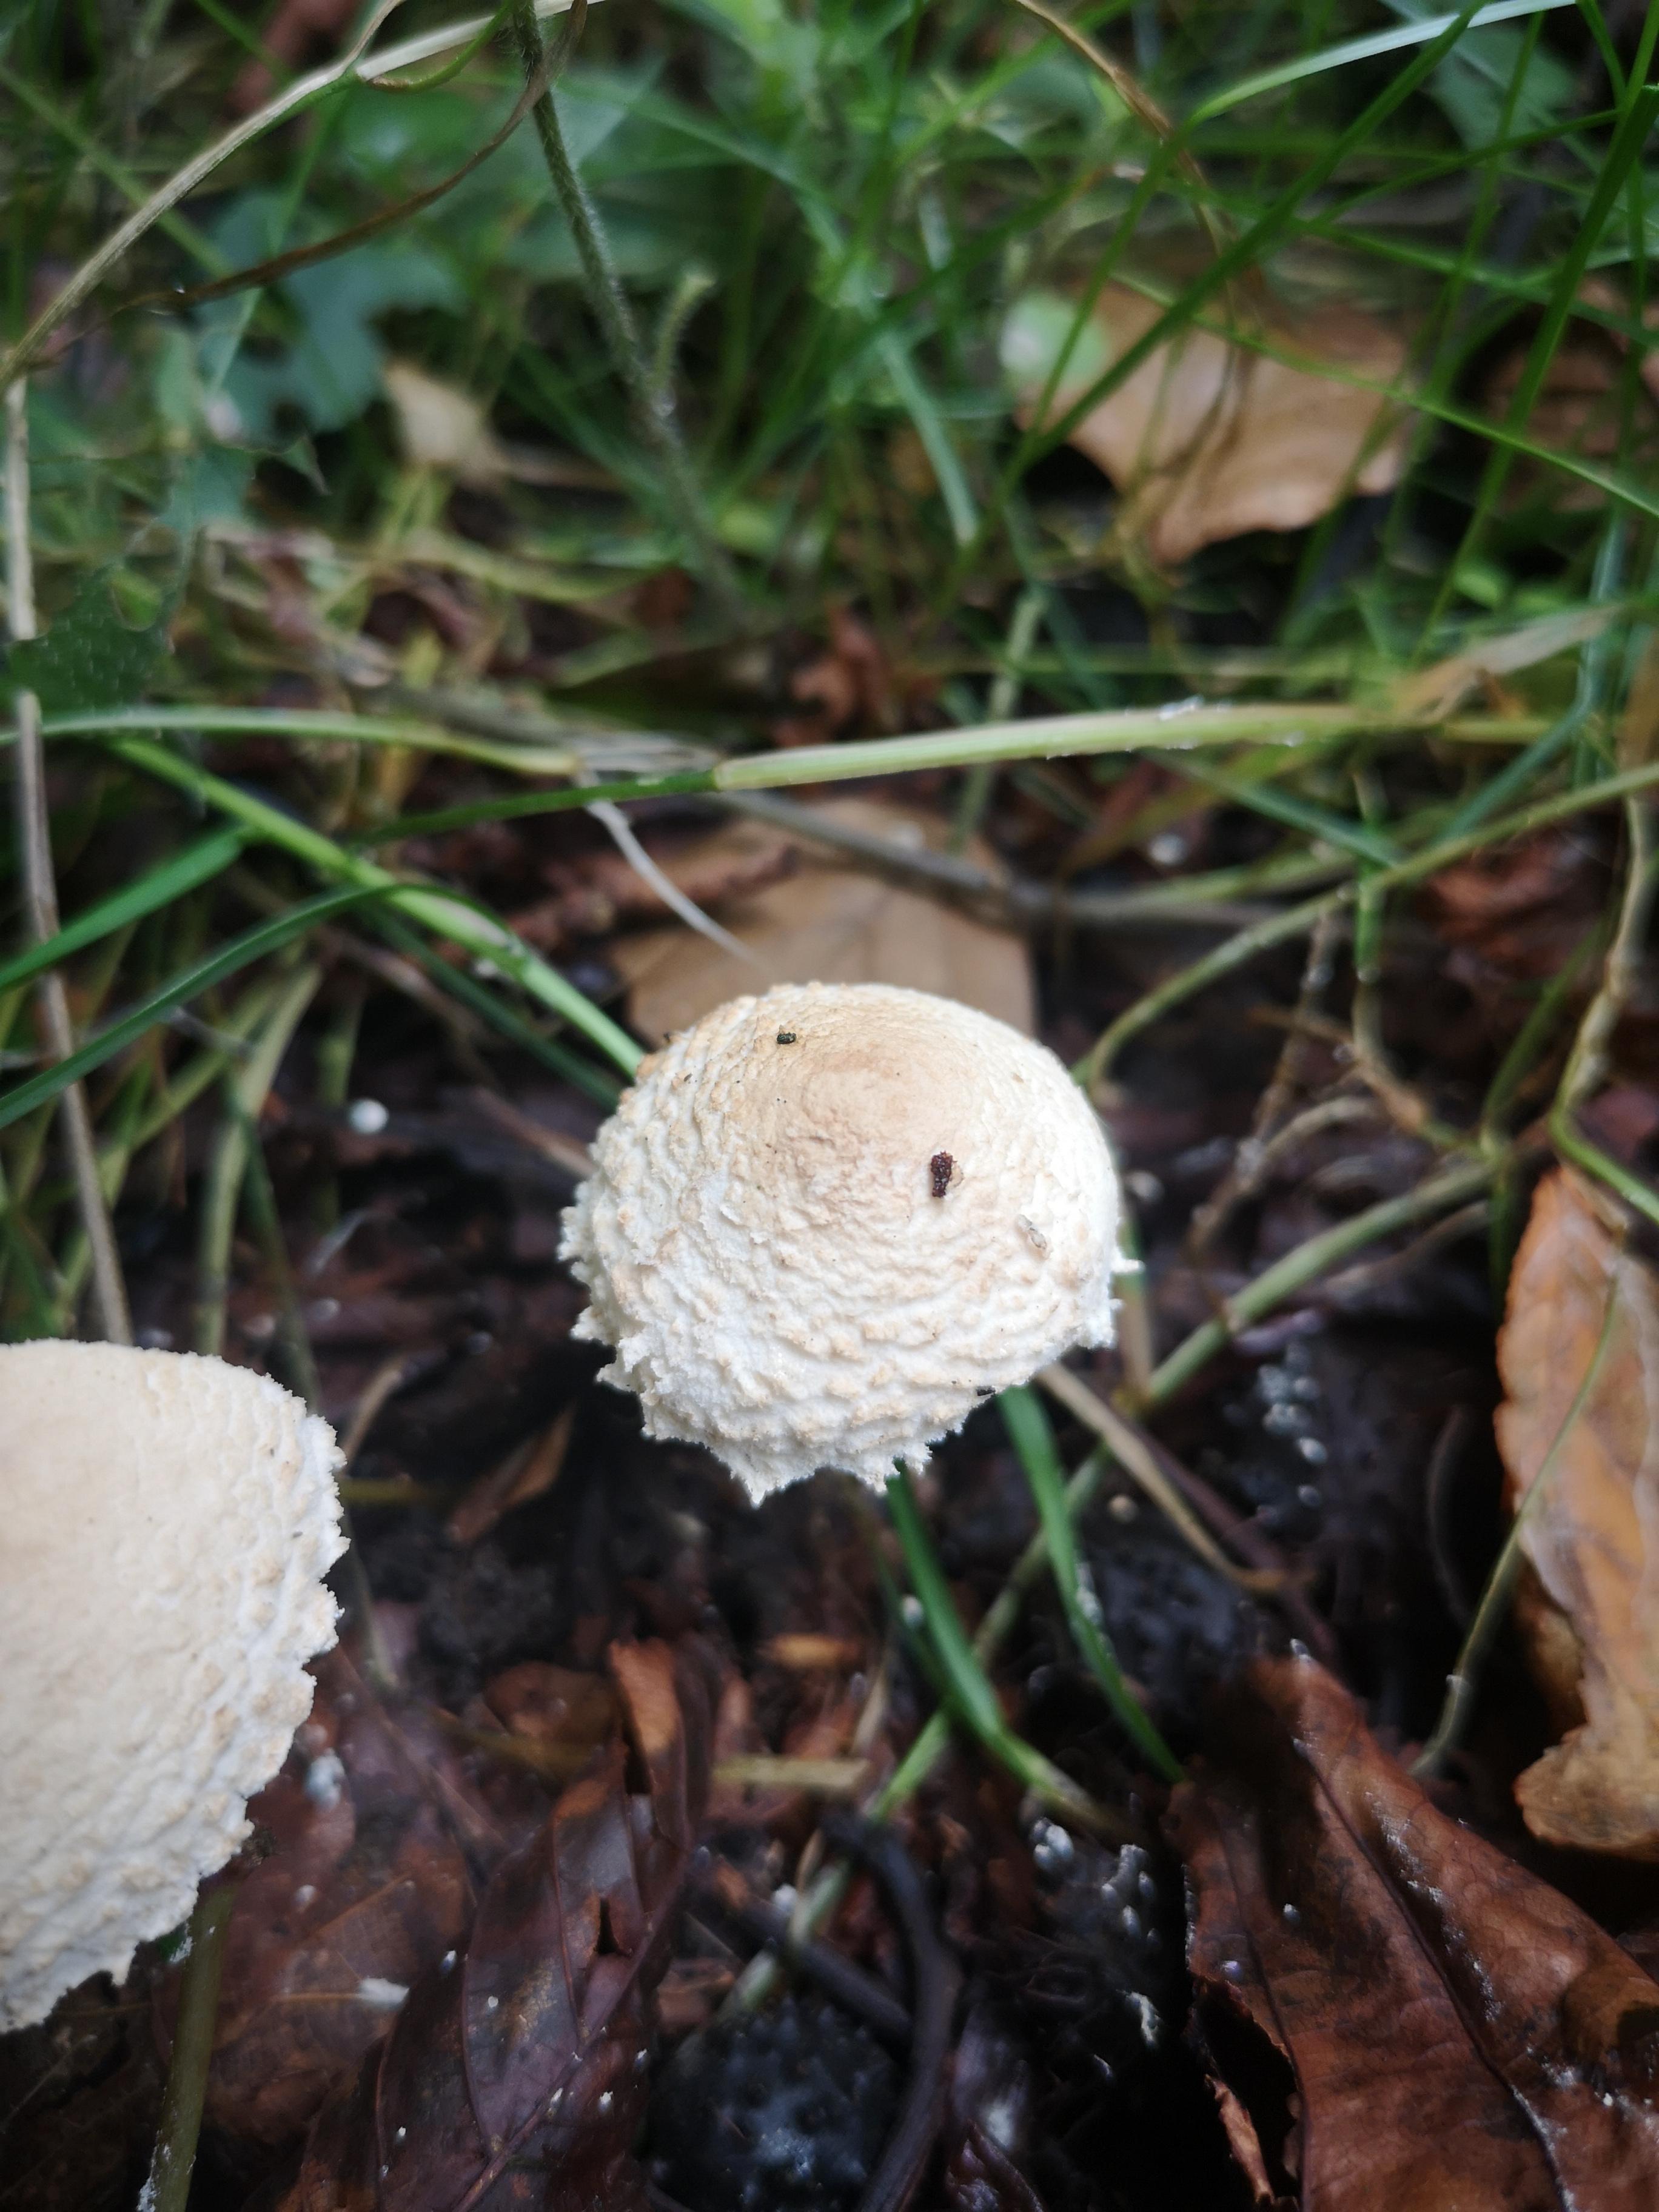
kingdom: Fungi
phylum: Basidiomycota
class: Agaricomycetes
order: Agaricales
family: Agaricaceae
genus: Cystolepiota
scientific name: Cystolepiota adulterina
